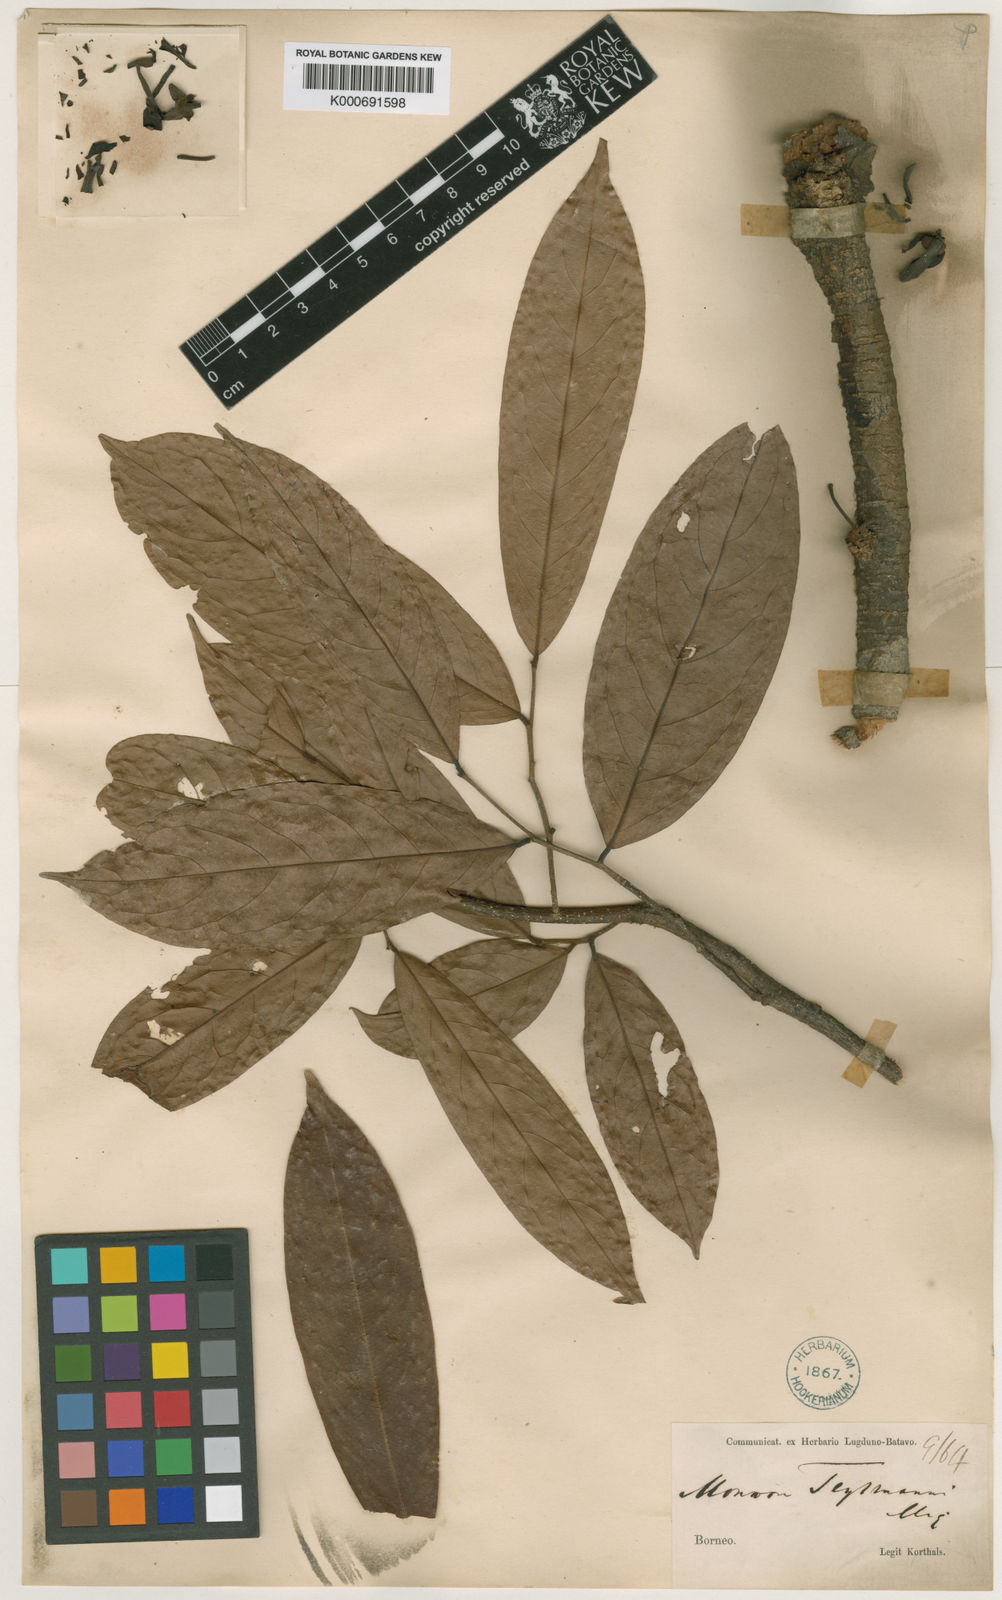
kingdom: Plantae
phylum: Tracheophyta
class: Magnoliopsida
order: Magnoliales
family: Annonaceae
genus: Polyalthia
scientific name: Polyalthia cauliflora
